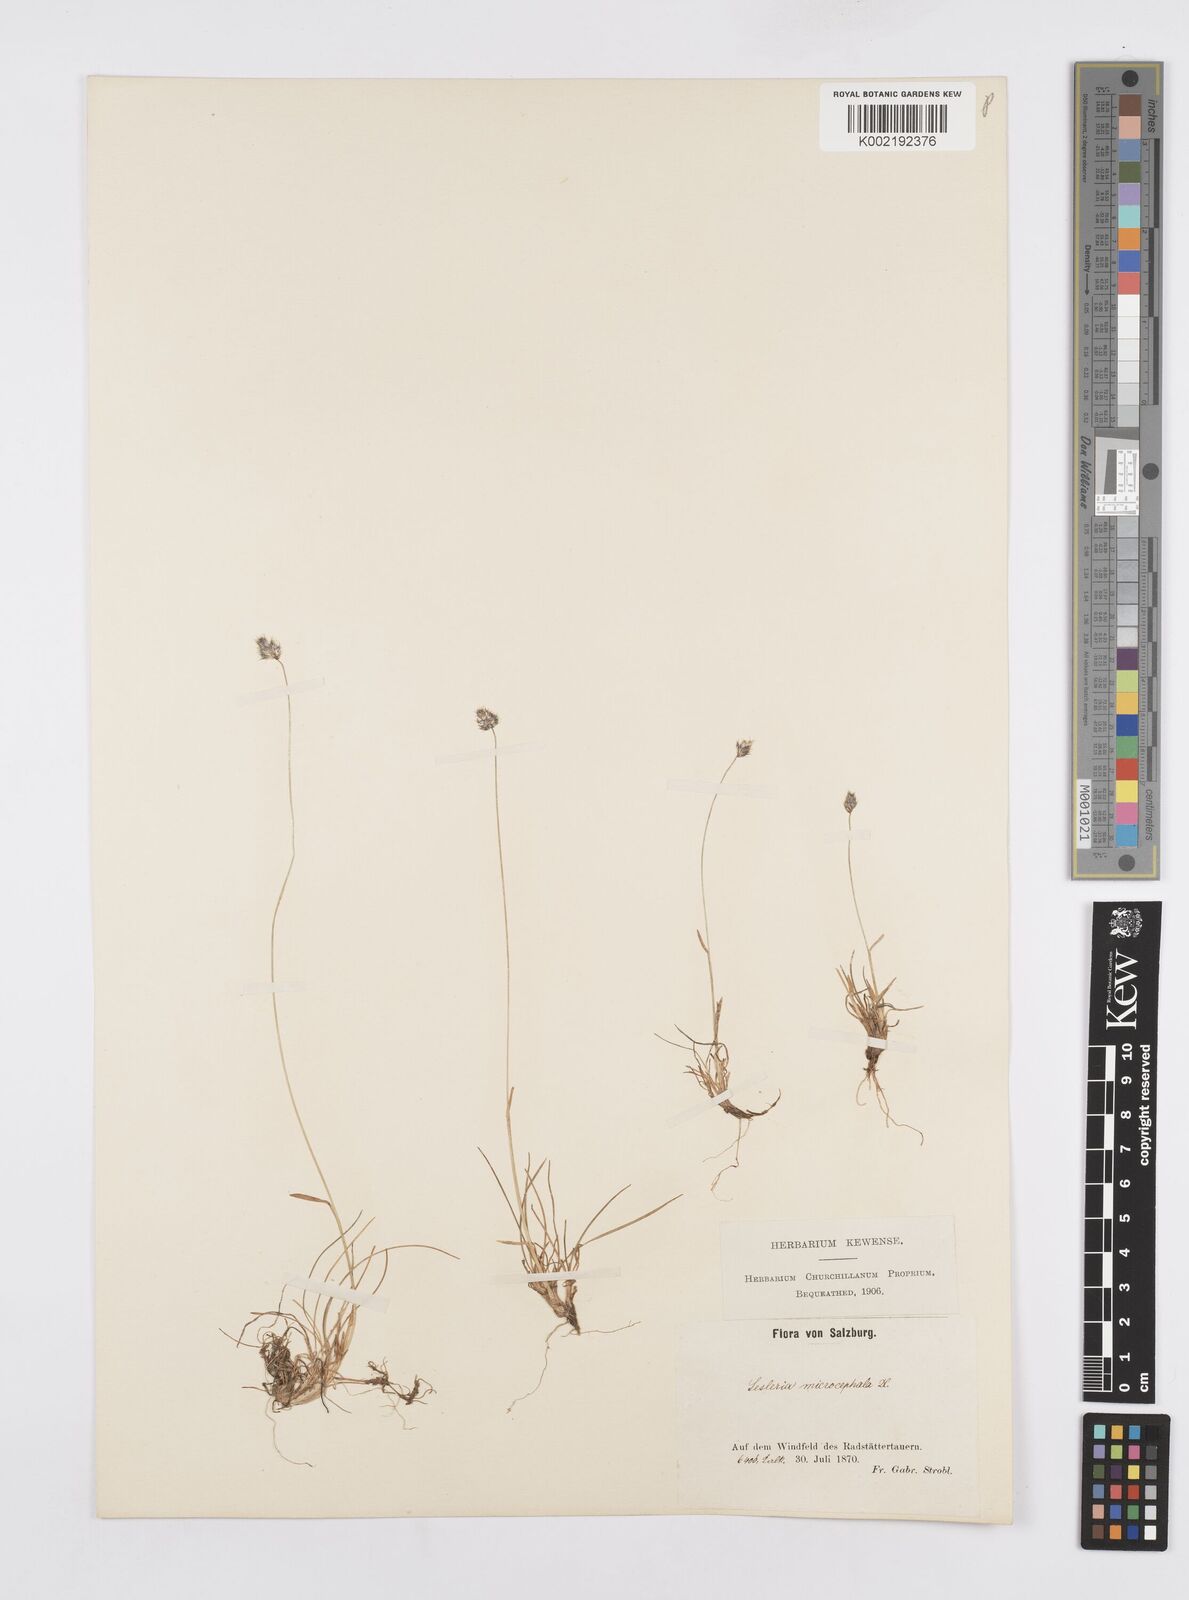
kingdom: Plantae
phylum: Tracheophyta
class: Liliopsida
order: Poales
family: Poaceae
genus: Psilathera
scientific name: Psilathera ovata
